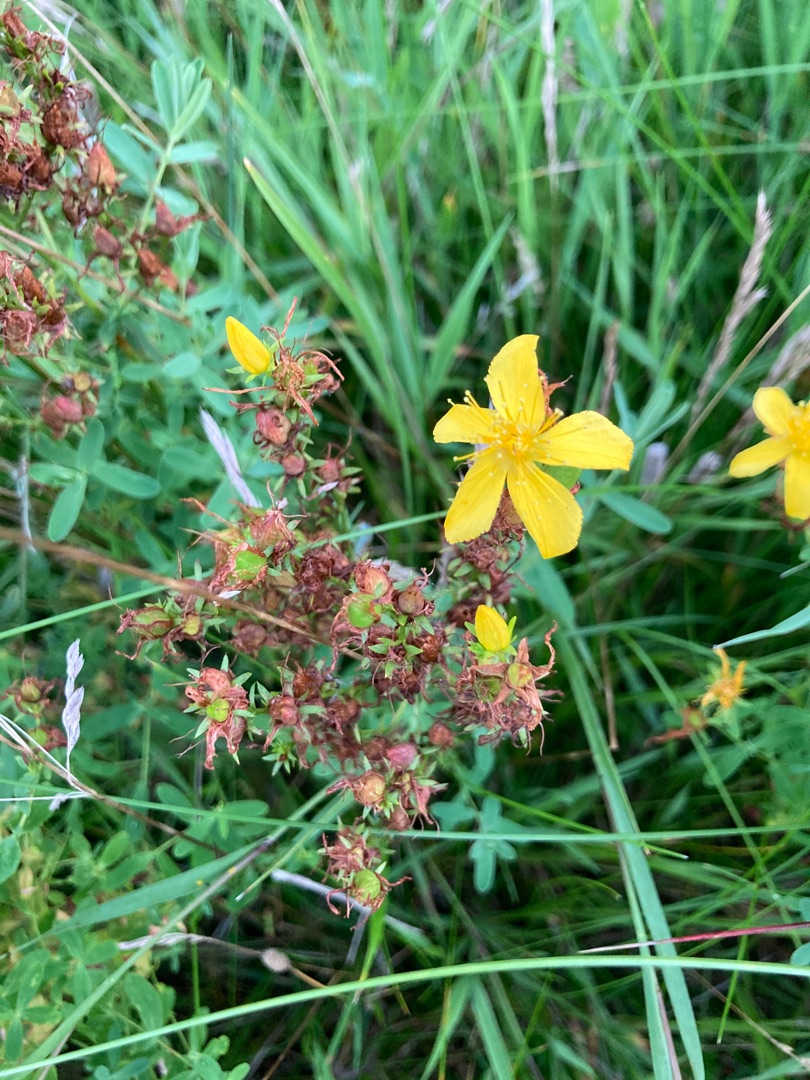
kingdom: Plantae
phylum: Tracheophyta
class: Magnoliopsida
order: Malpighiales
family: Hypericaceae
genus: Hypericum
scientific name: Hypericum perforatum
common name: Prikbladet perikon
